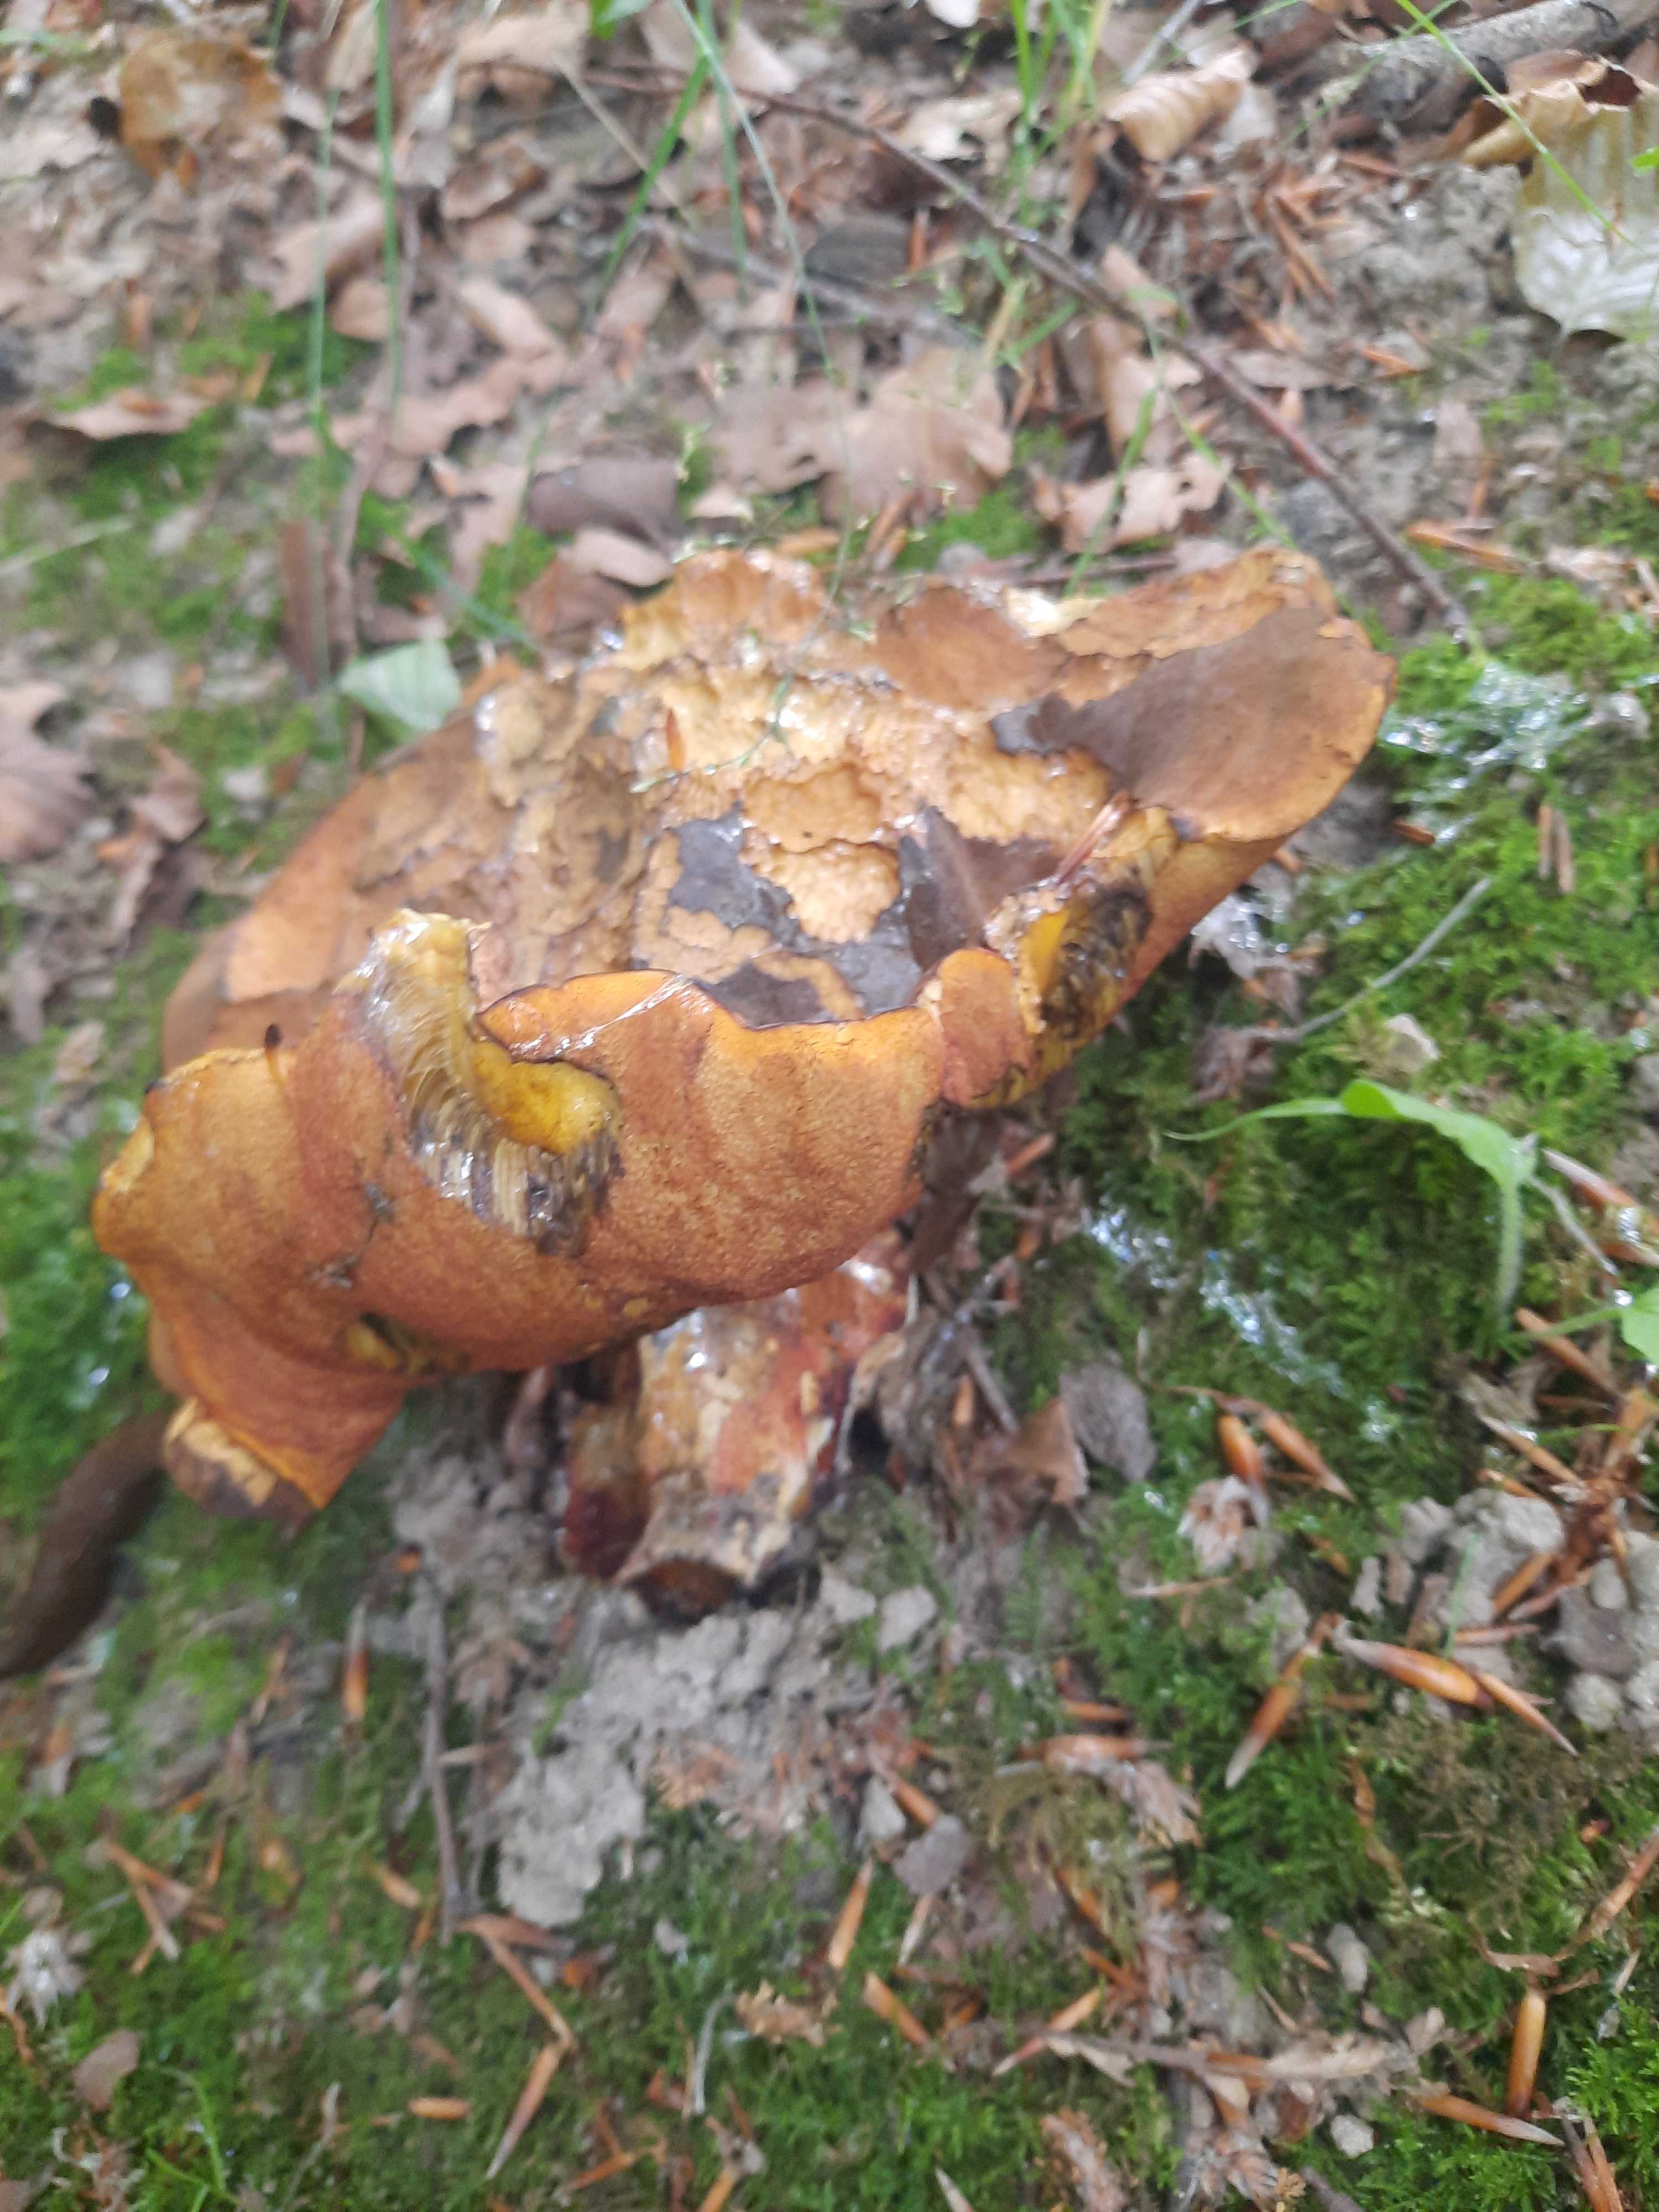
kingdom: Fungi
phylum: Basidiomycota
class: Agaricomycetes
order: Boletales
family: Boletaceae
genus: Neoboletus
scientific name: Neoboletus erythropus
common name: punktstokket indigorørhat
